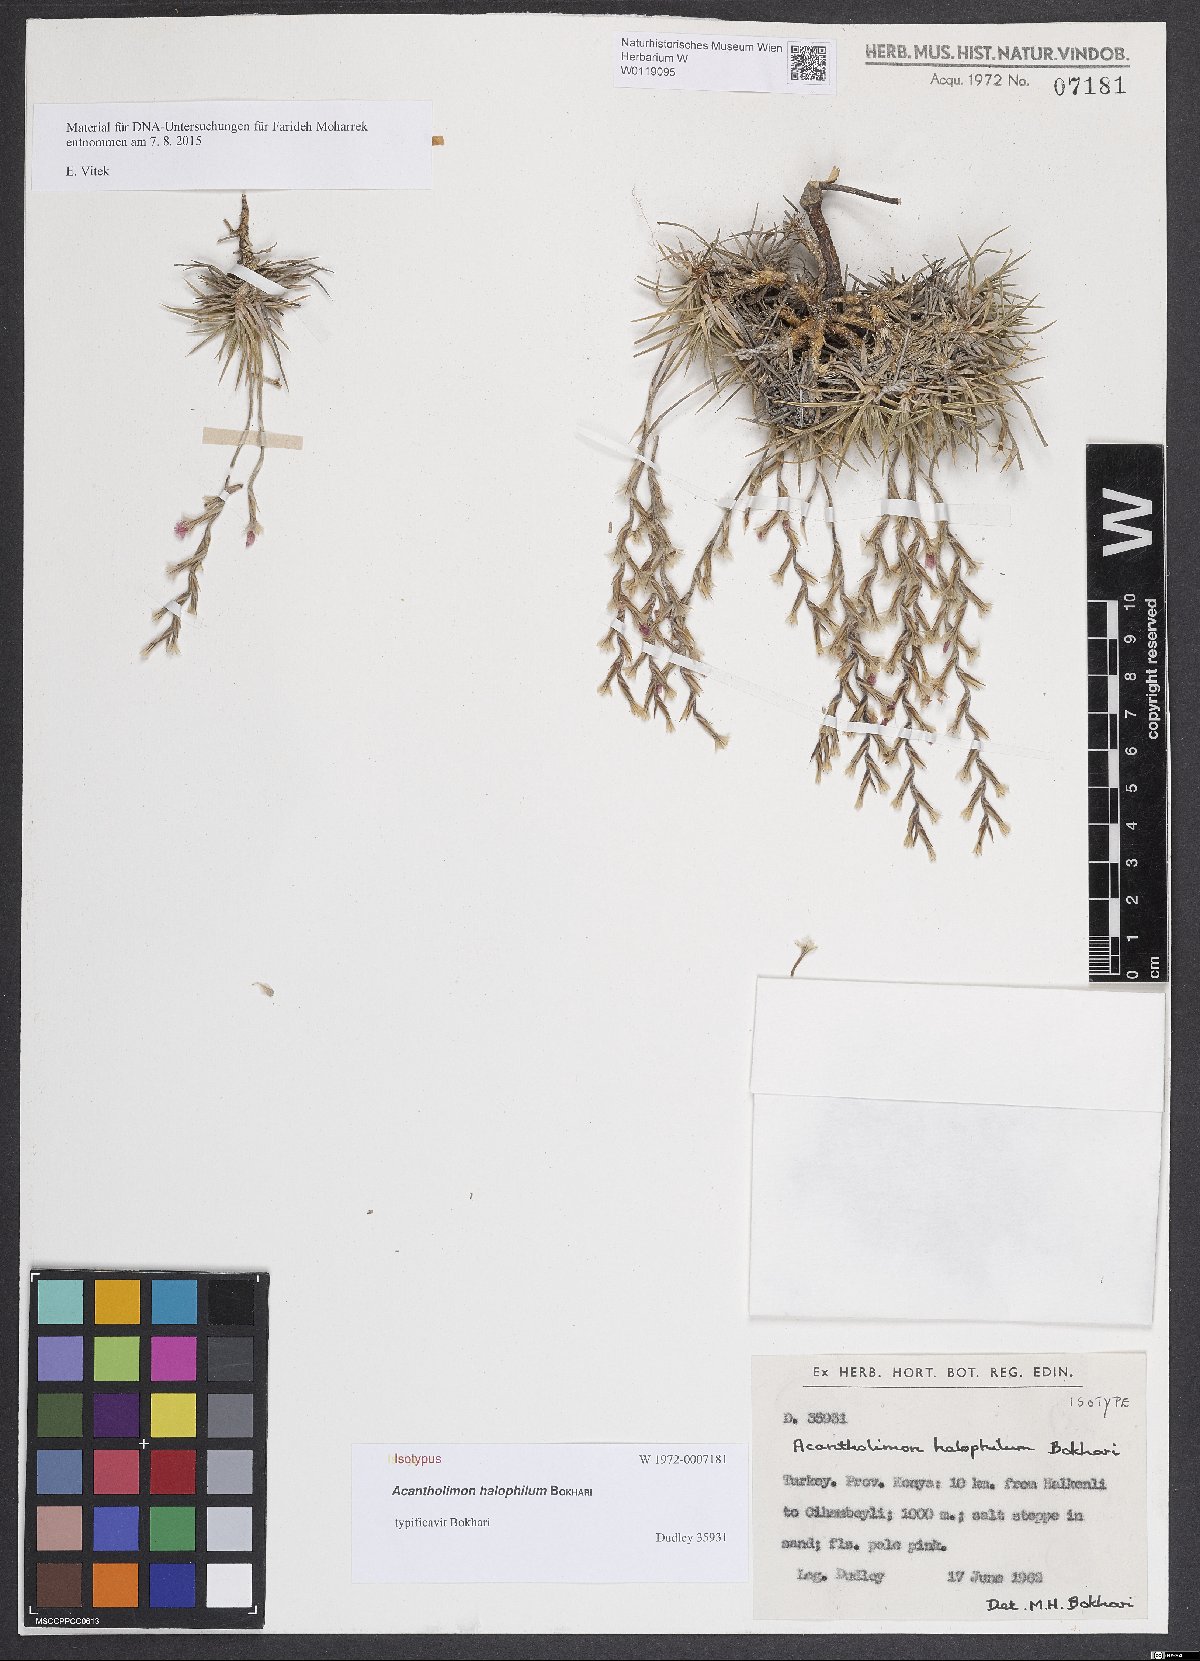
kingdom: Plantae
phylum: Tracheophyta
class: Magnoliopsida
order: Caryophyllales
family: Plumbaginaceae
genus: Acantholimon
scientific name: Acantholimon halophilum
